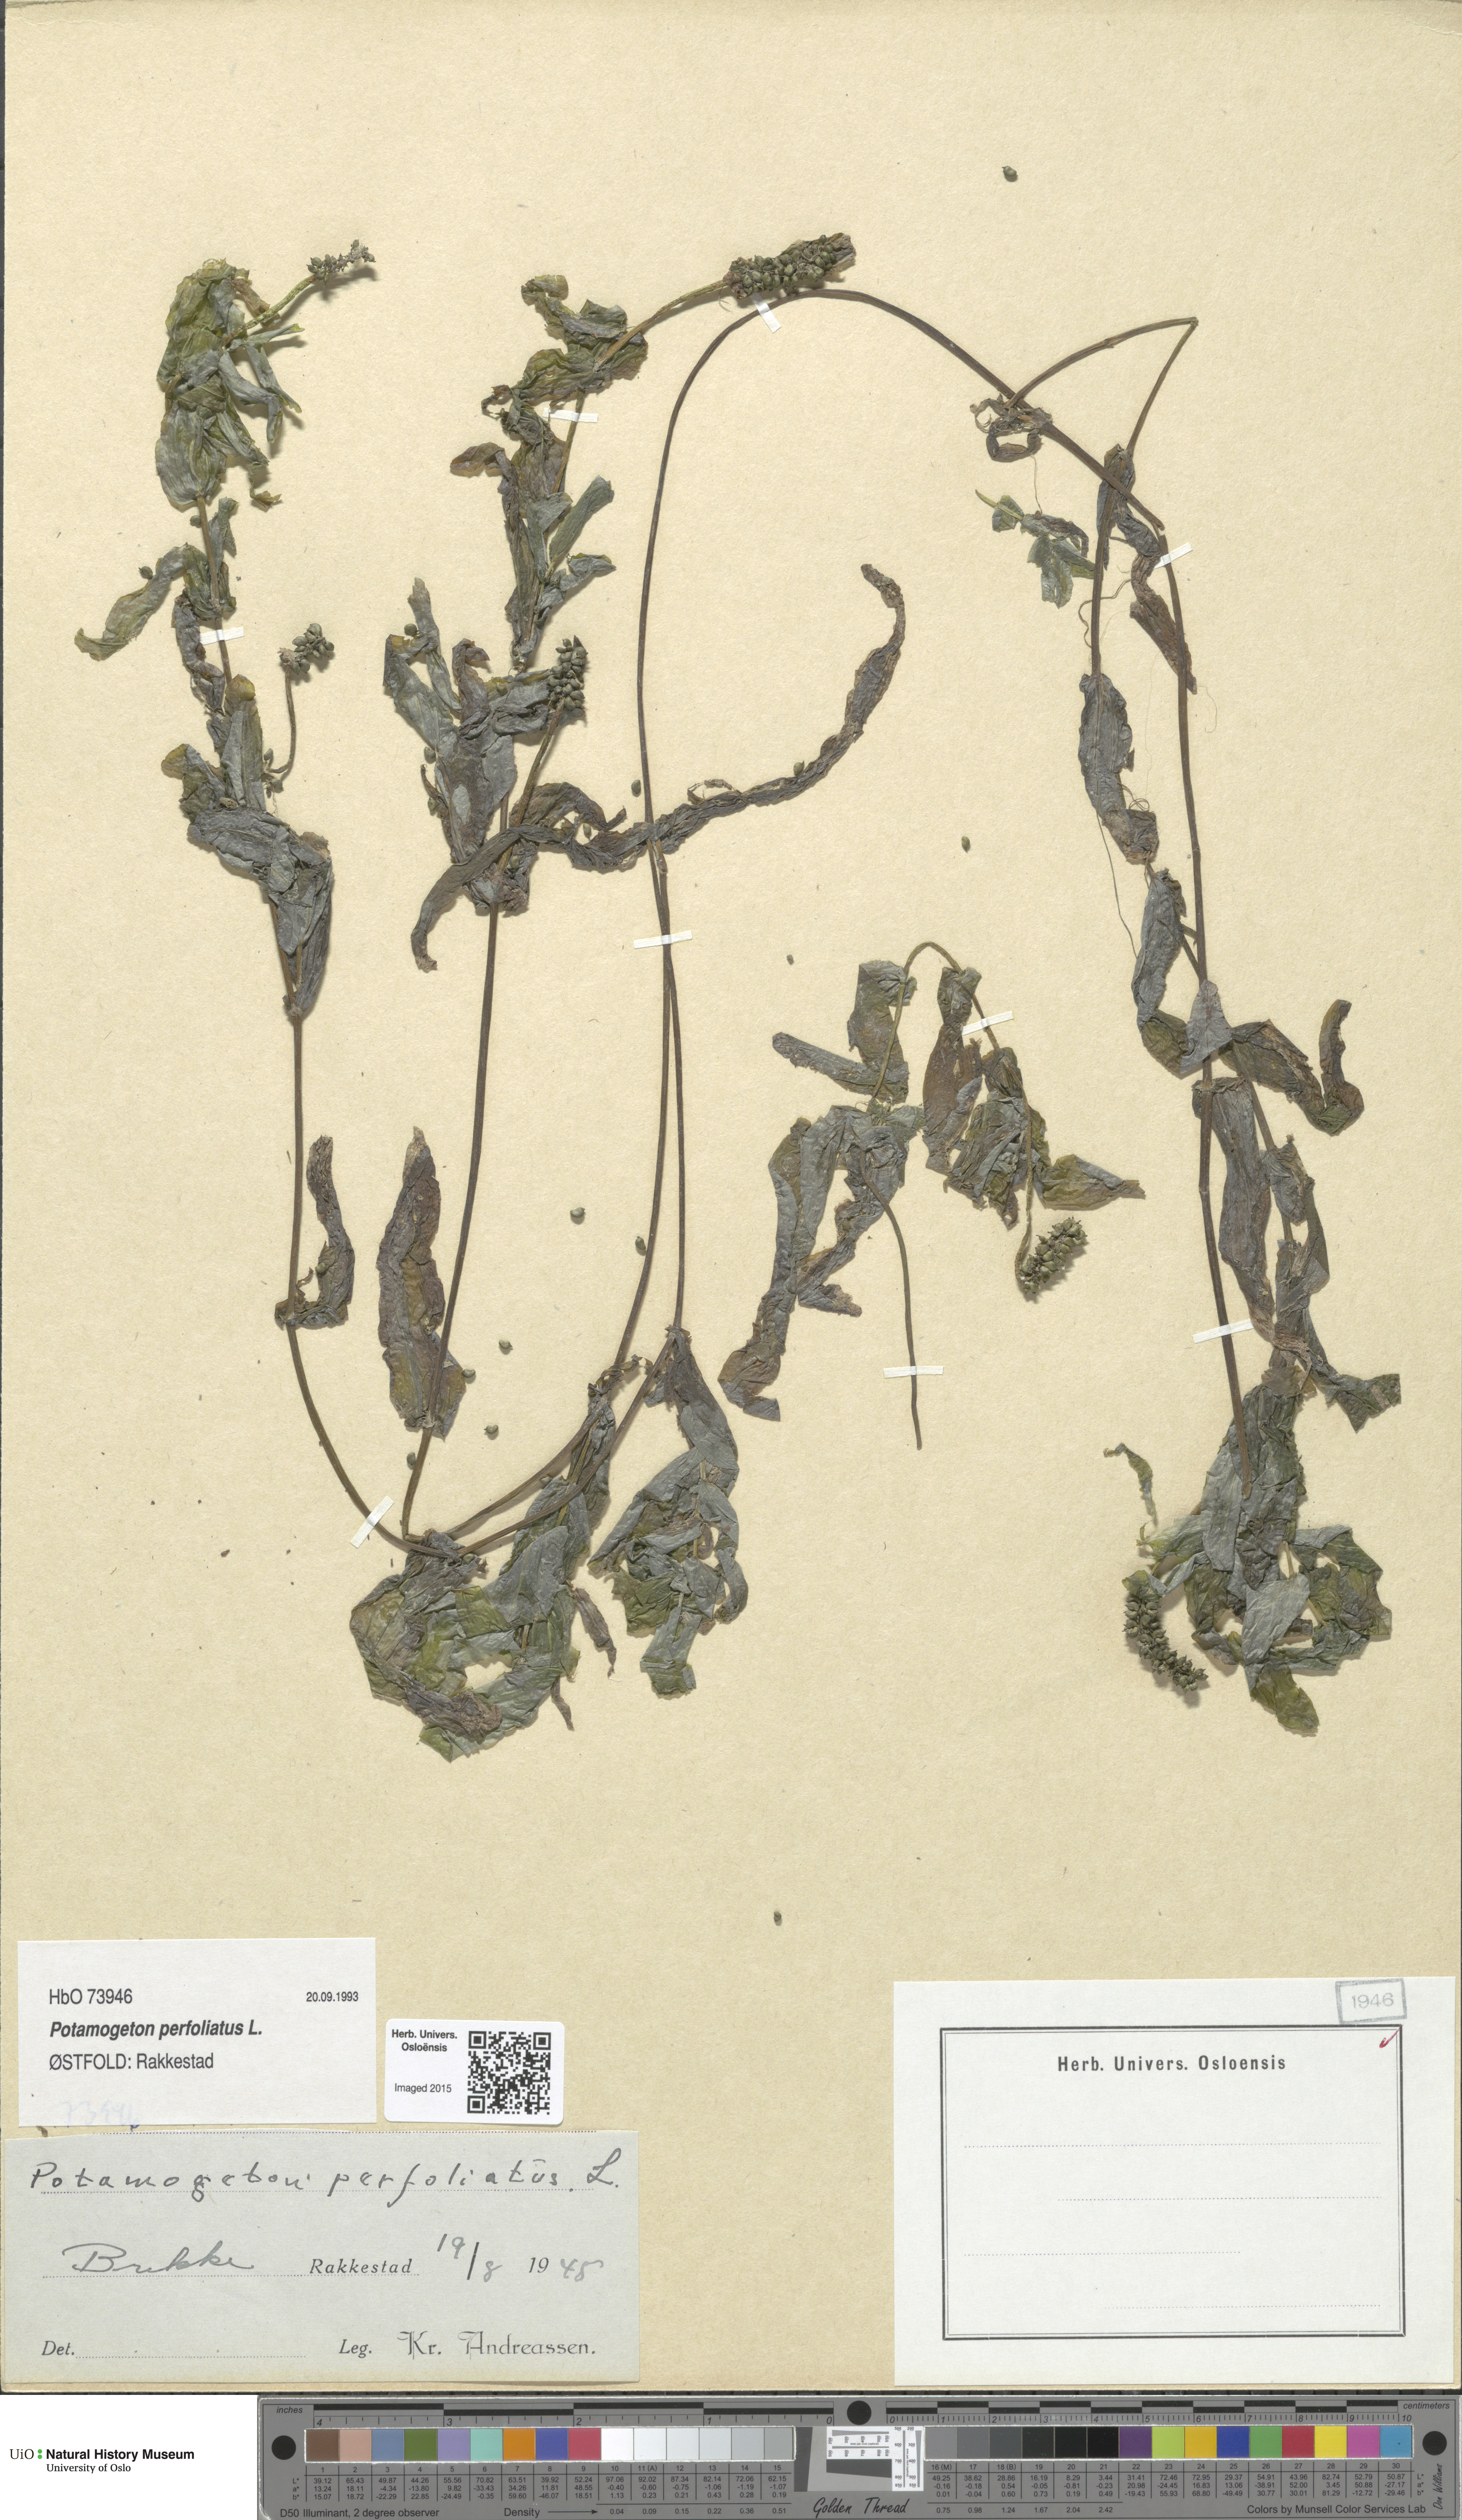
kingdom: Plantae
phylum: Tracheophyta
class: Liliopsida
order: Alismatales
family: Potamogetonaceae
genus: Potamogeton
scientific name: Potamogeton perfoliatus
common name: Perfoliate pondweed
